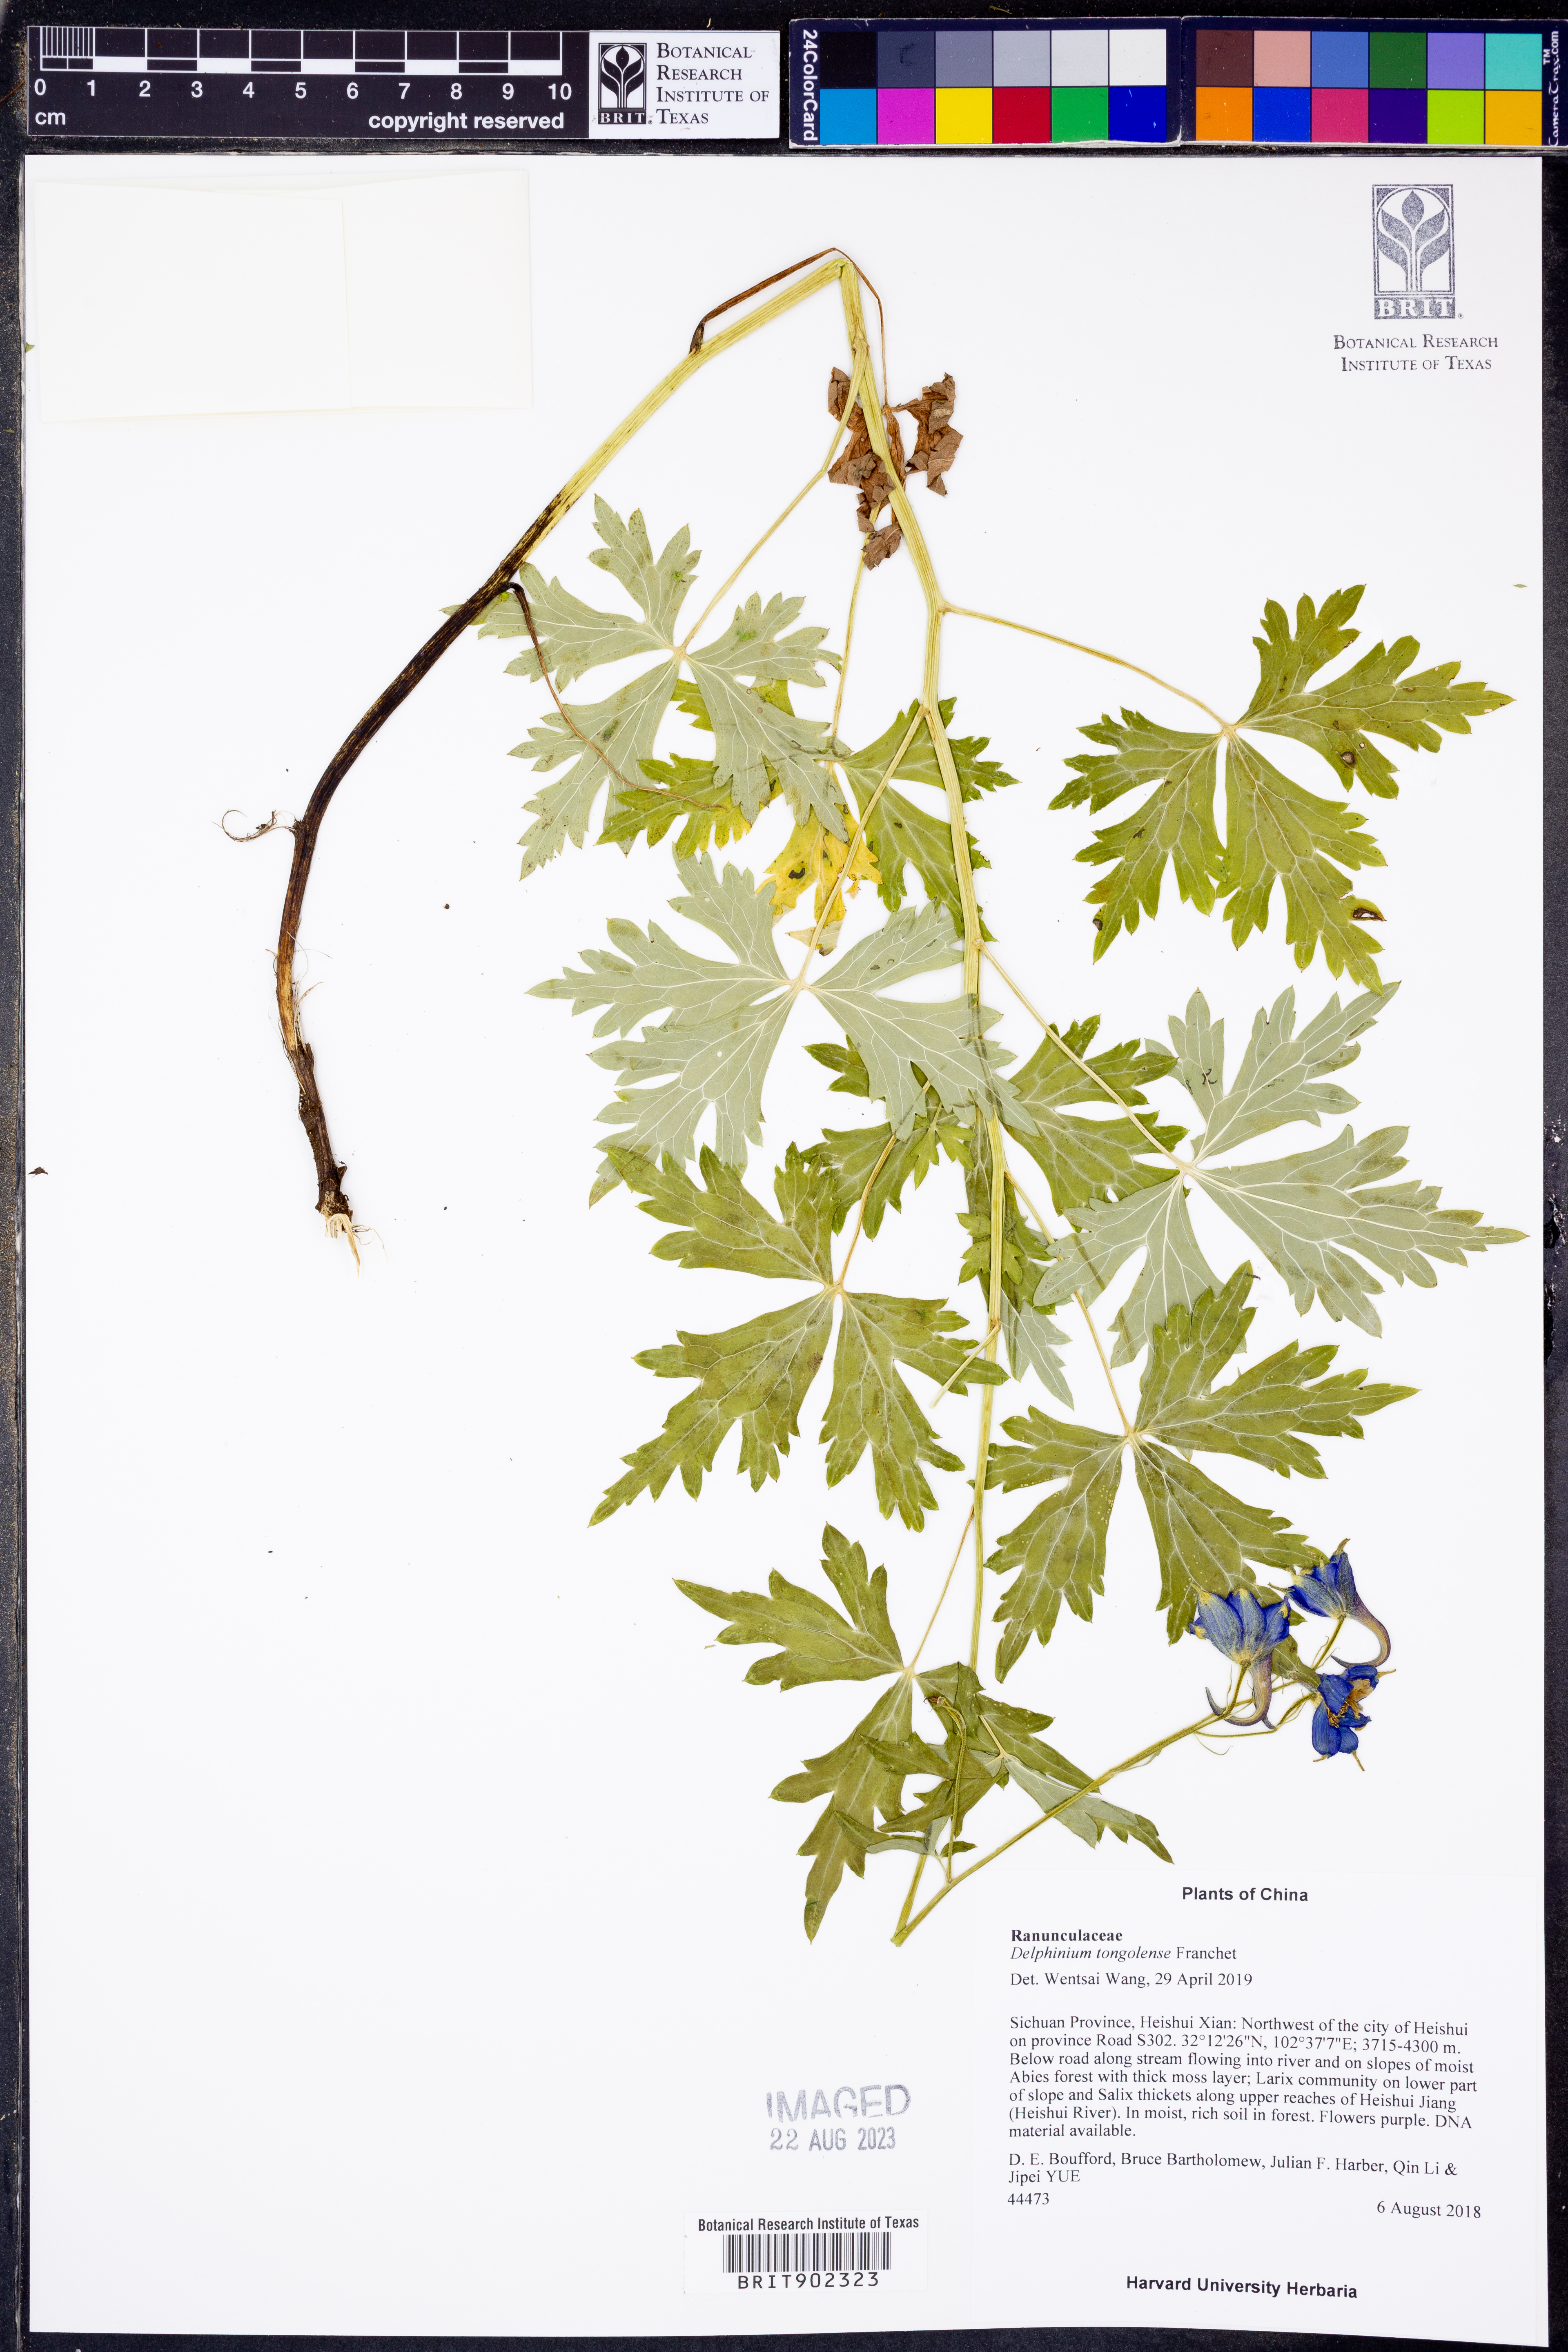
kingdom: Plantae
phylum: Tracheophyta
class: Magnoliopsida
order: Ranunculales
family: Ranunculaceae
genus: Delphinium
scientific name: Delphinium tongolense
